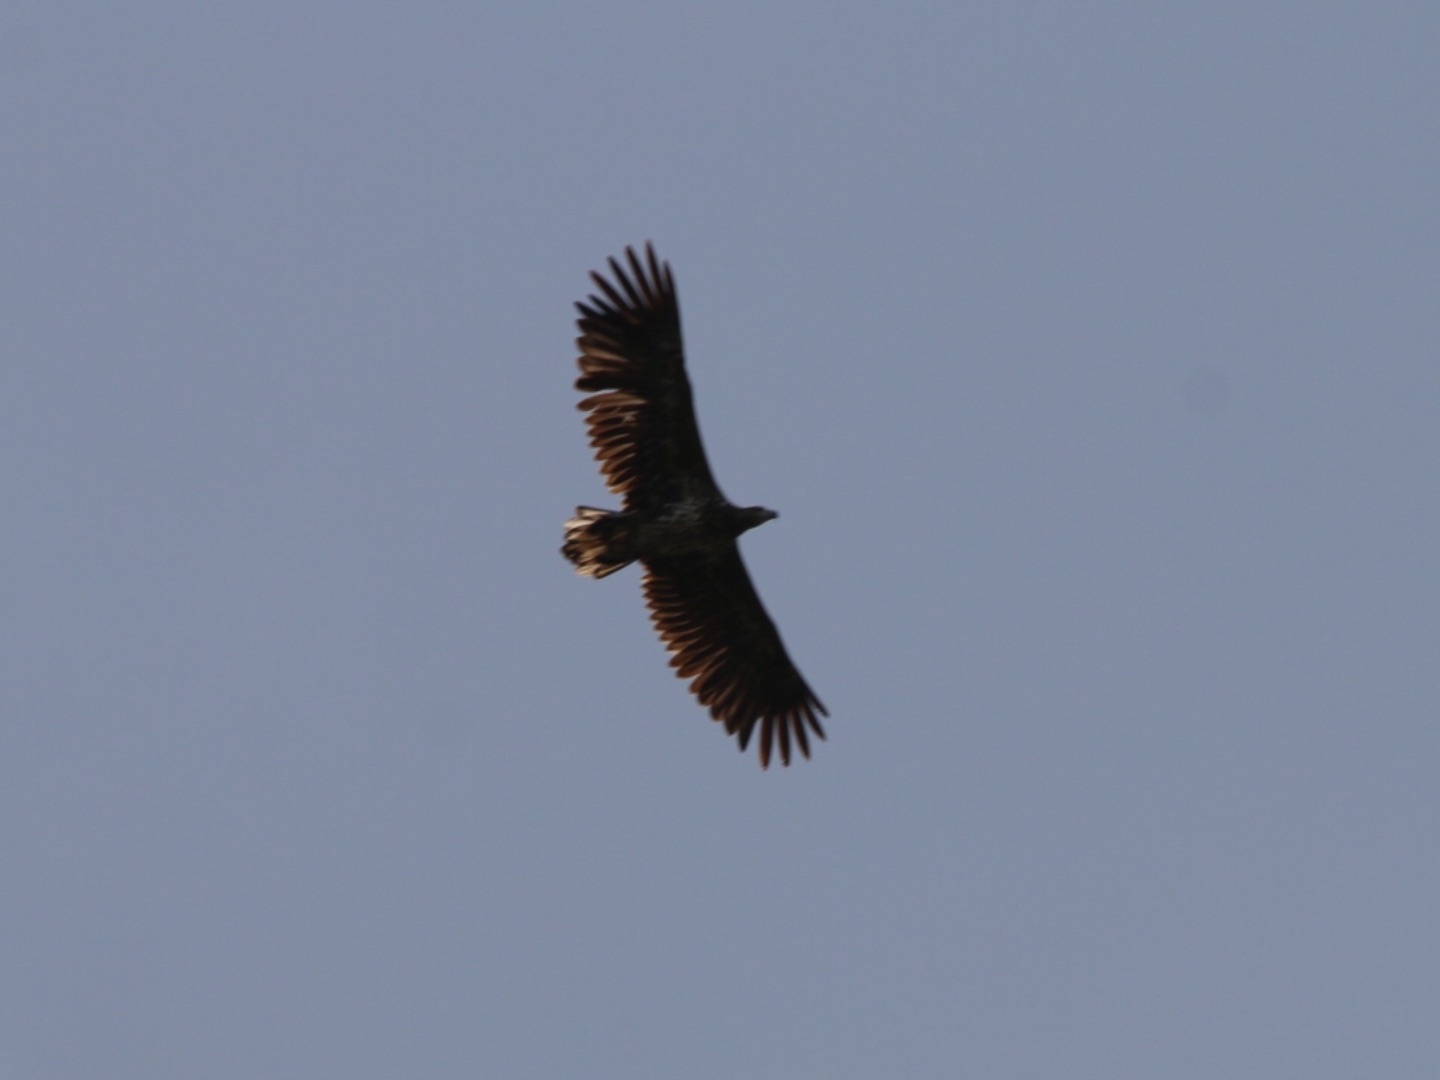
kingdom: Animalia
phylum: Chordata
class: Aves
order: Accipitriformes
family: Accipitridae
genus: Haliaeetus
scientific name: Haliaeetus albicilla
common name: Havørn
